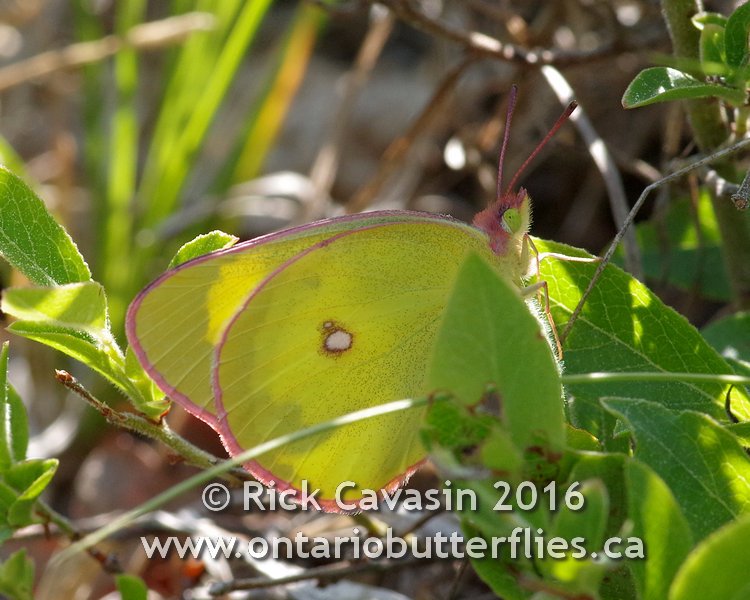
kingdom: Animalia
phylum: Arthropoda
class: Insecta
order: Lepidoptera
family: Pieridae
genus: Colias
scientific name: Colias interior
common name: Pink-edged Sulphur
